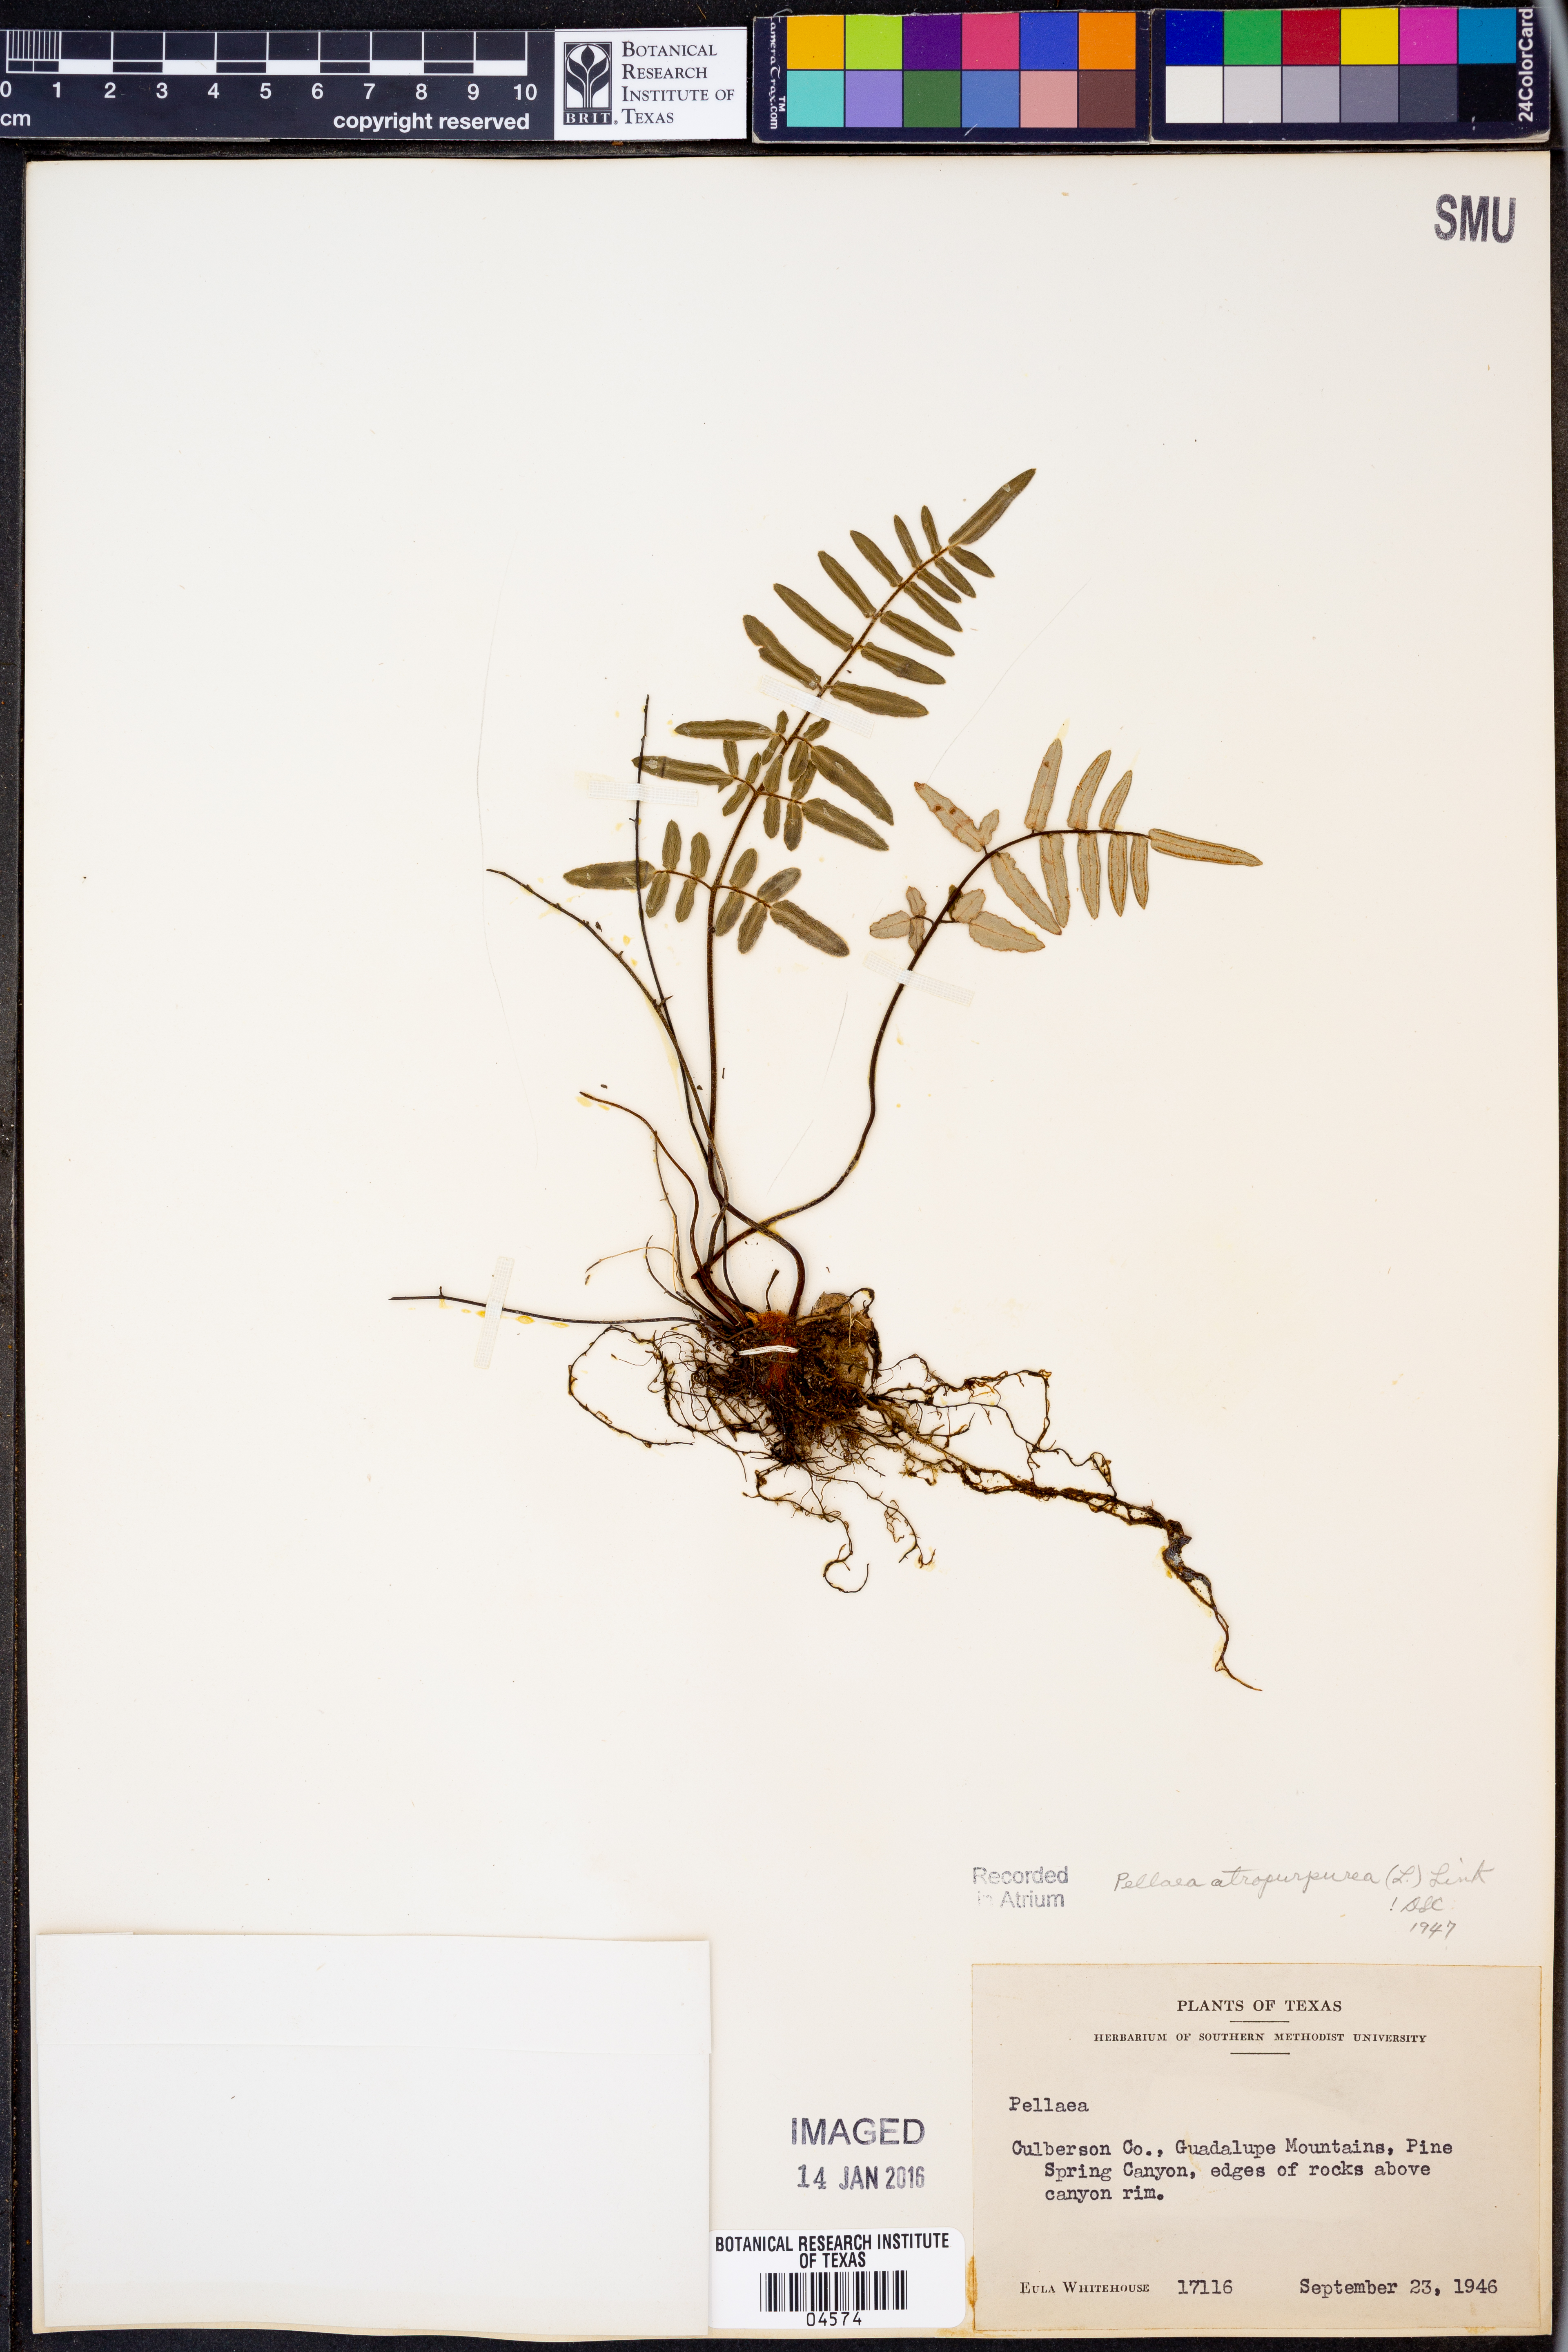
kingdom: Plantae
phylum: Tracheophyta
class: Polypodiopsida
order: Polypodiales
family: Pteridaceae
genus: Pellaea
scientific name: Pellaea atropurpurea
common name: Hairy cliffbrake
